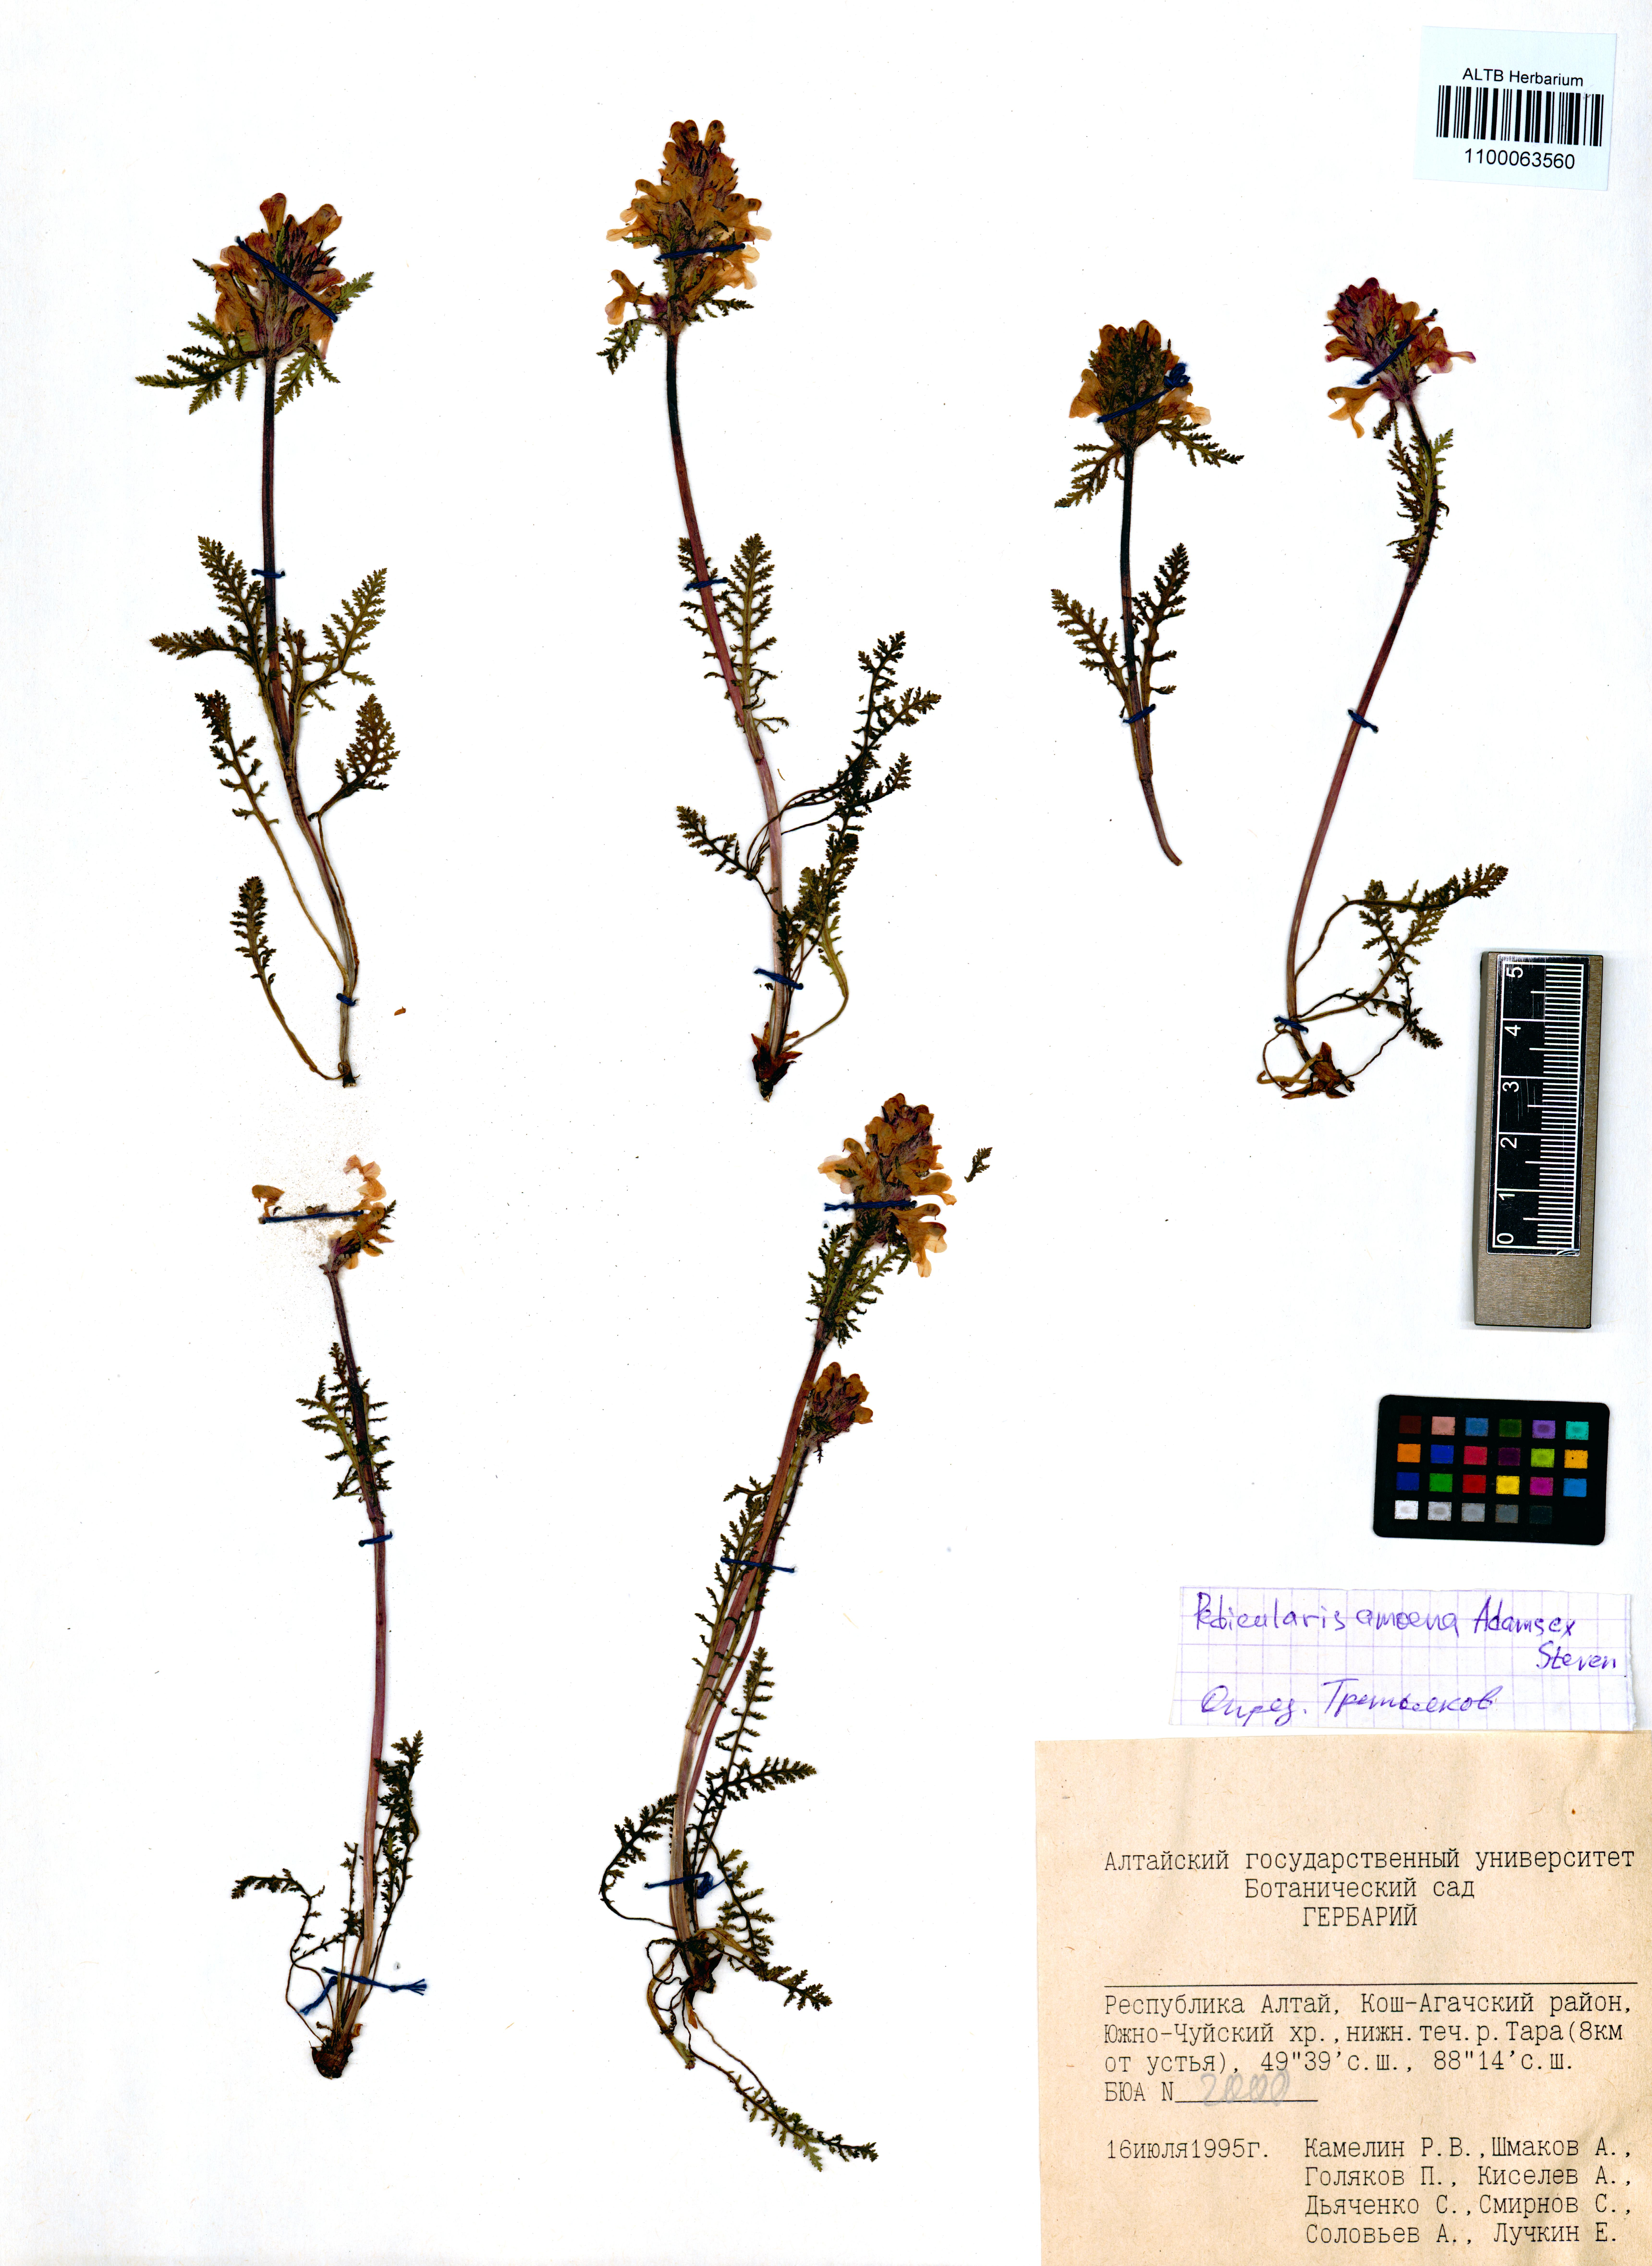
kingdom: Plantae
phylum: Tracheophyta
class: Magnoliopsida
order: Lamiales
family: Orobanchaceae
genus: Pedicularis
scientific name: Pedicularis amoena
